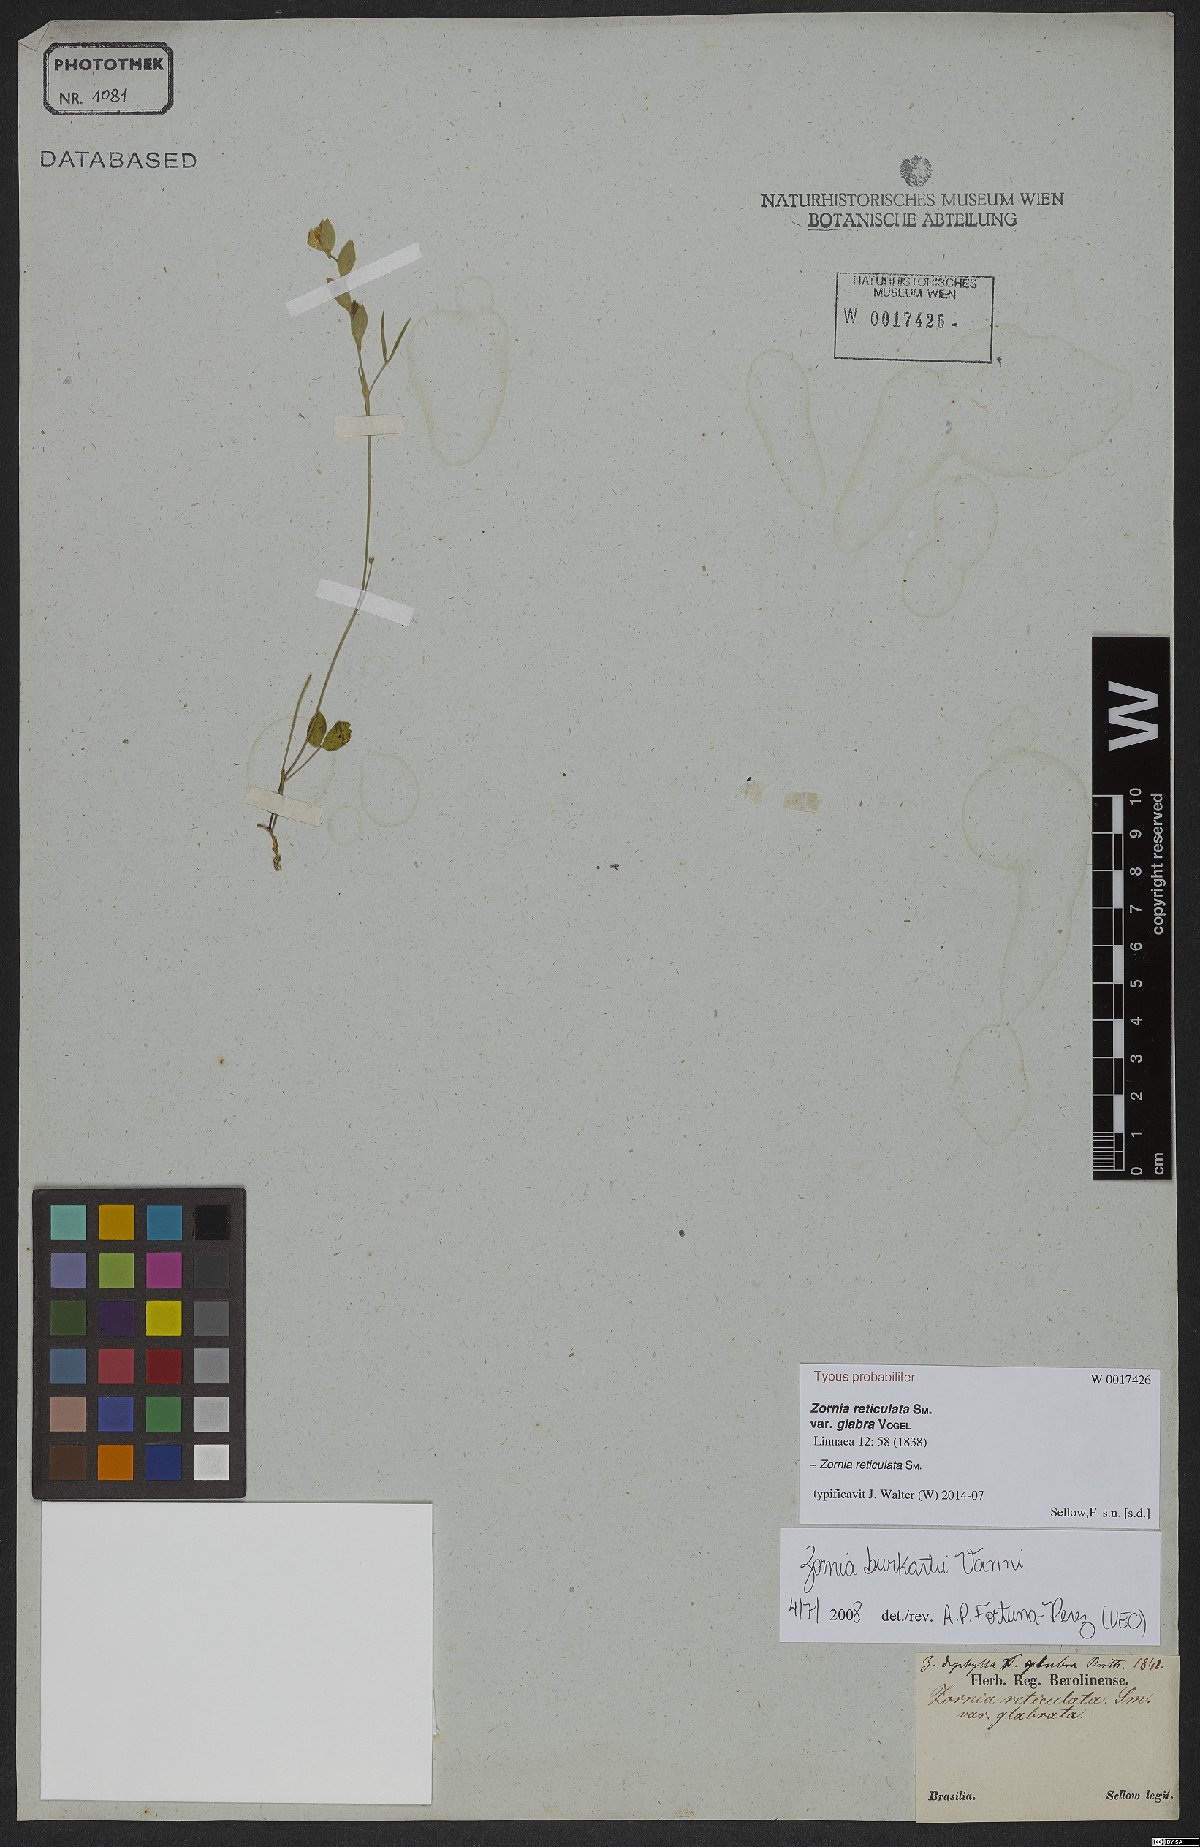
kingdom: Plantae
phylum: Tracheophyta
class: Magnoliopsida
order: Fabales
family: Fabaceae
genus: Zornia
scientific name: Zornia reticulata
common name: Reticulate viperina
